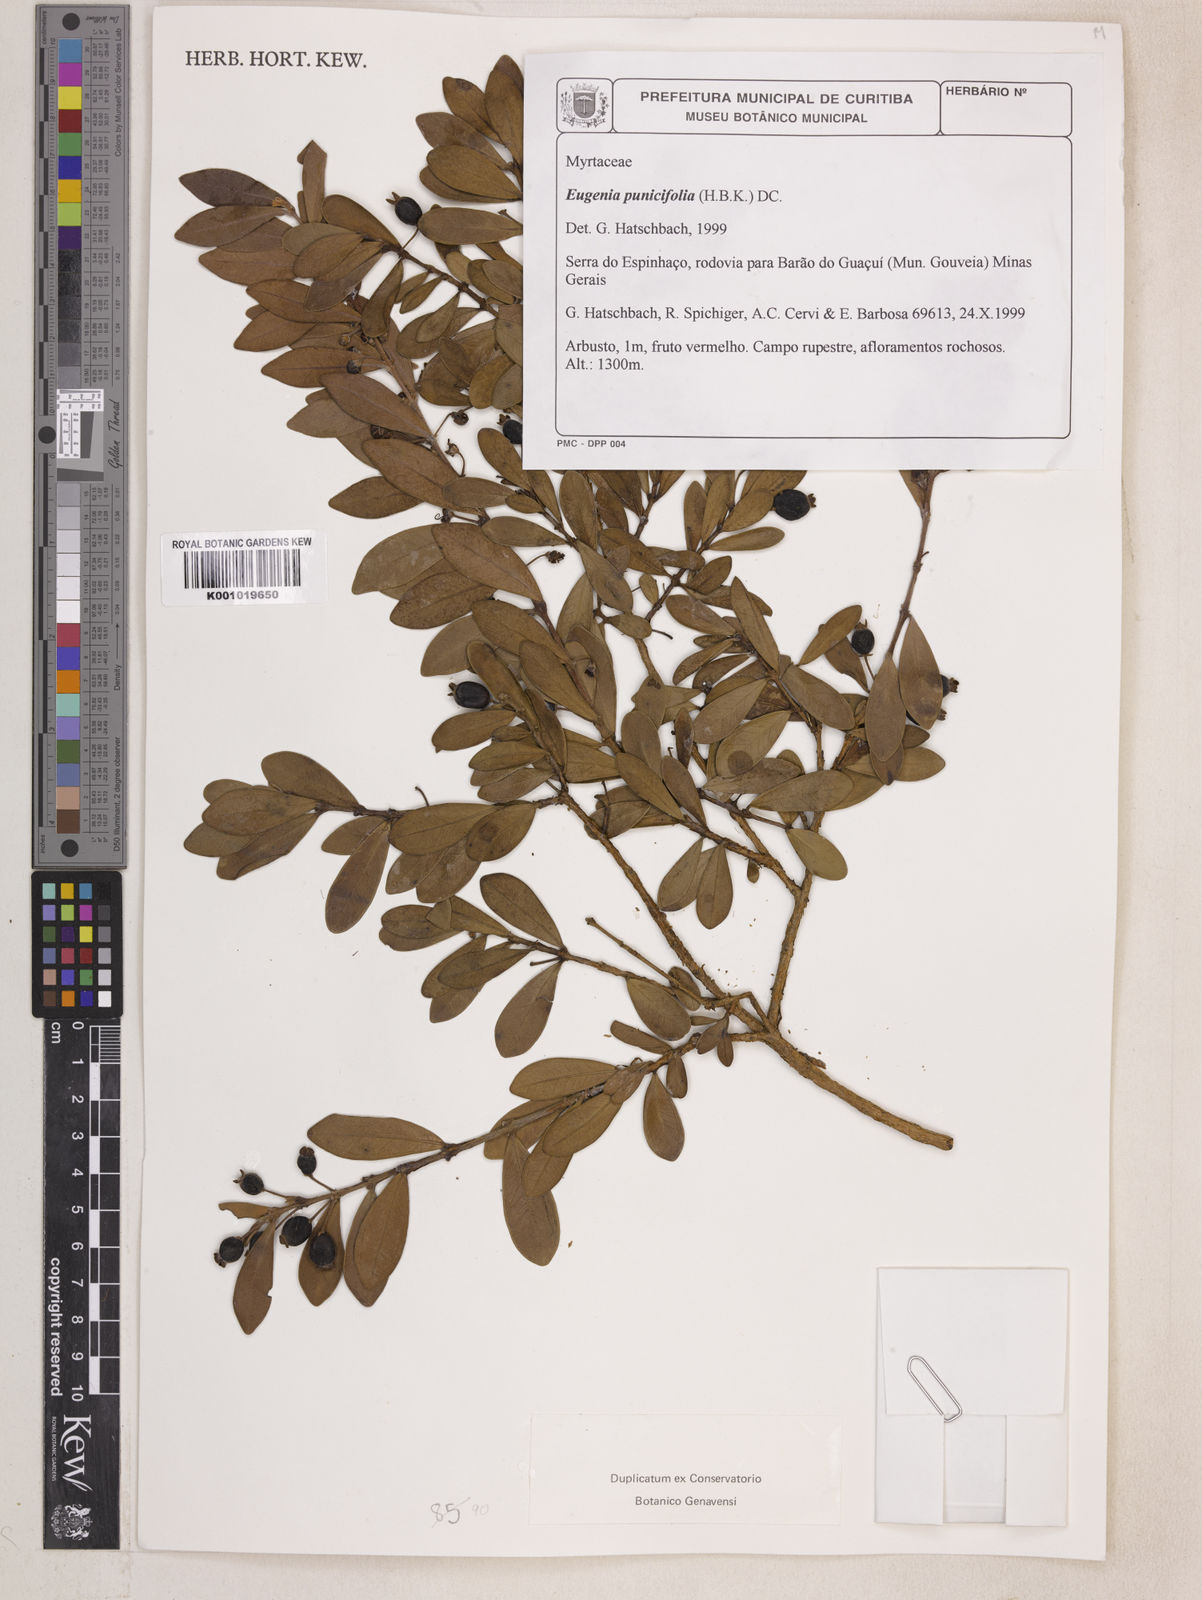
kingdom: Plantae
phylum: Tracheophyta
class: Magnoliopsida
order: Myrtales
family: Myrtaceae
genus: Eugenia
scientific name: Eugenia punicifolia
